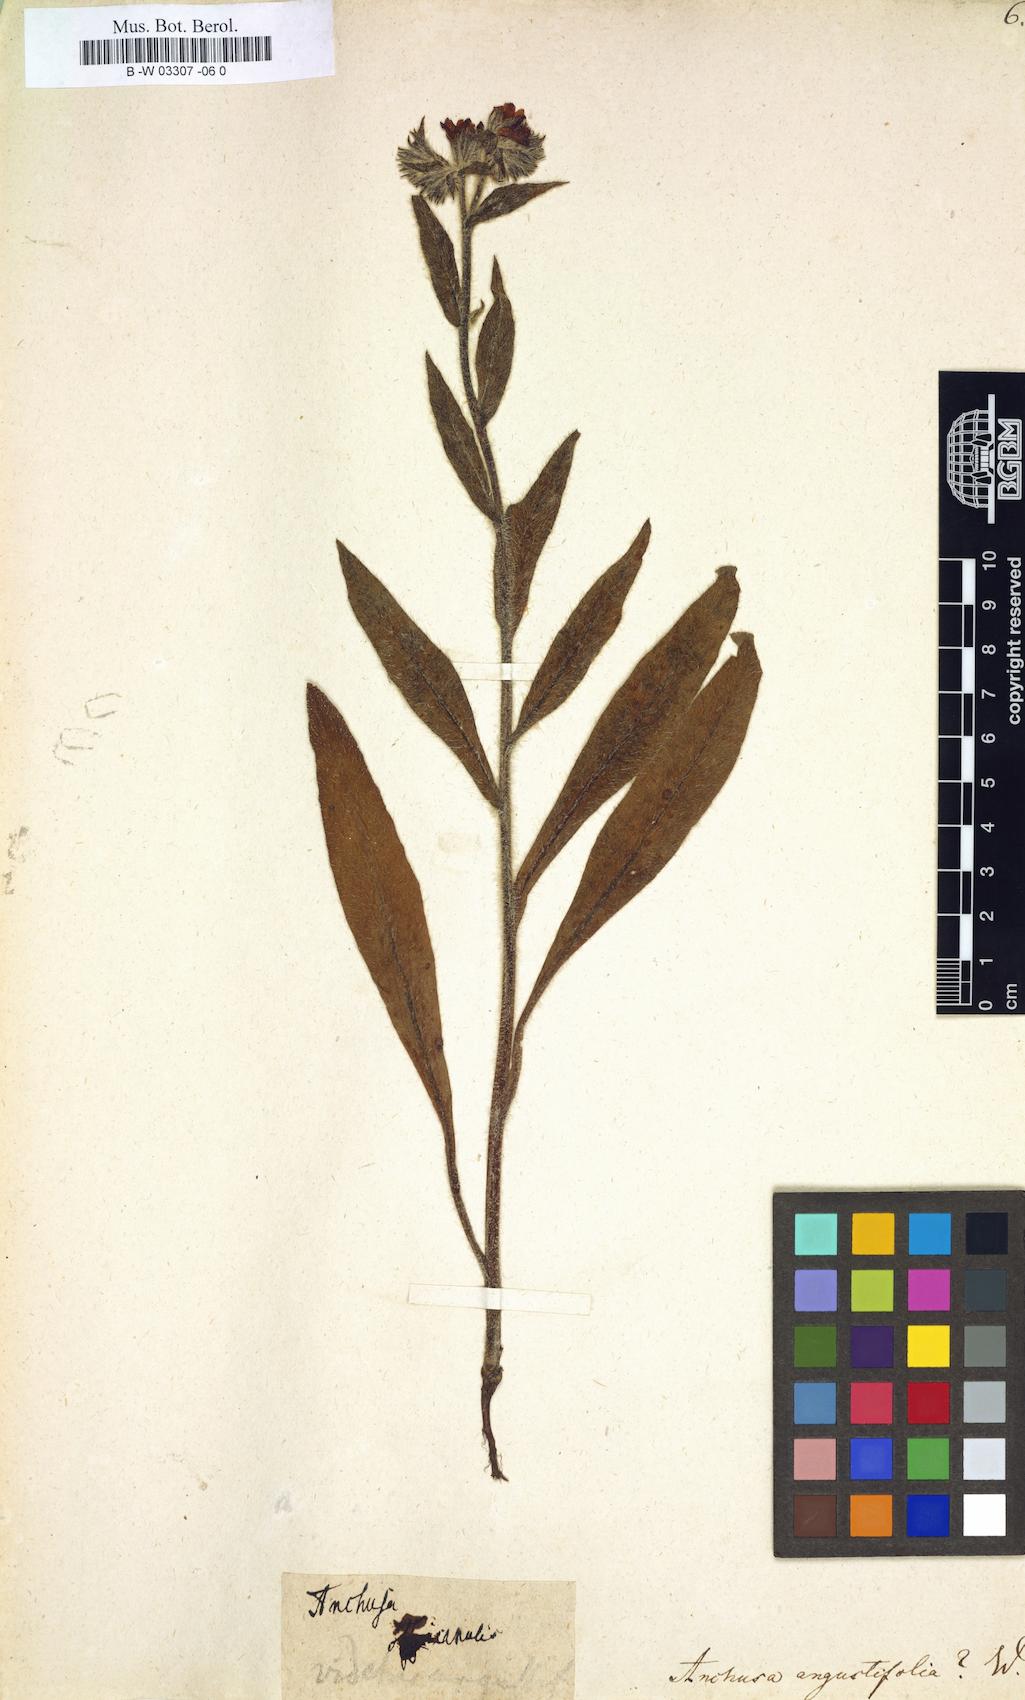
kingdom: Plantae
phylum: Tracheophyta
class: Magnoliopsida
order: Boraginales
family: Boraginaceae
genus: Anchusa
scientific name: Anchusa officinalis
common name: Alkanet
